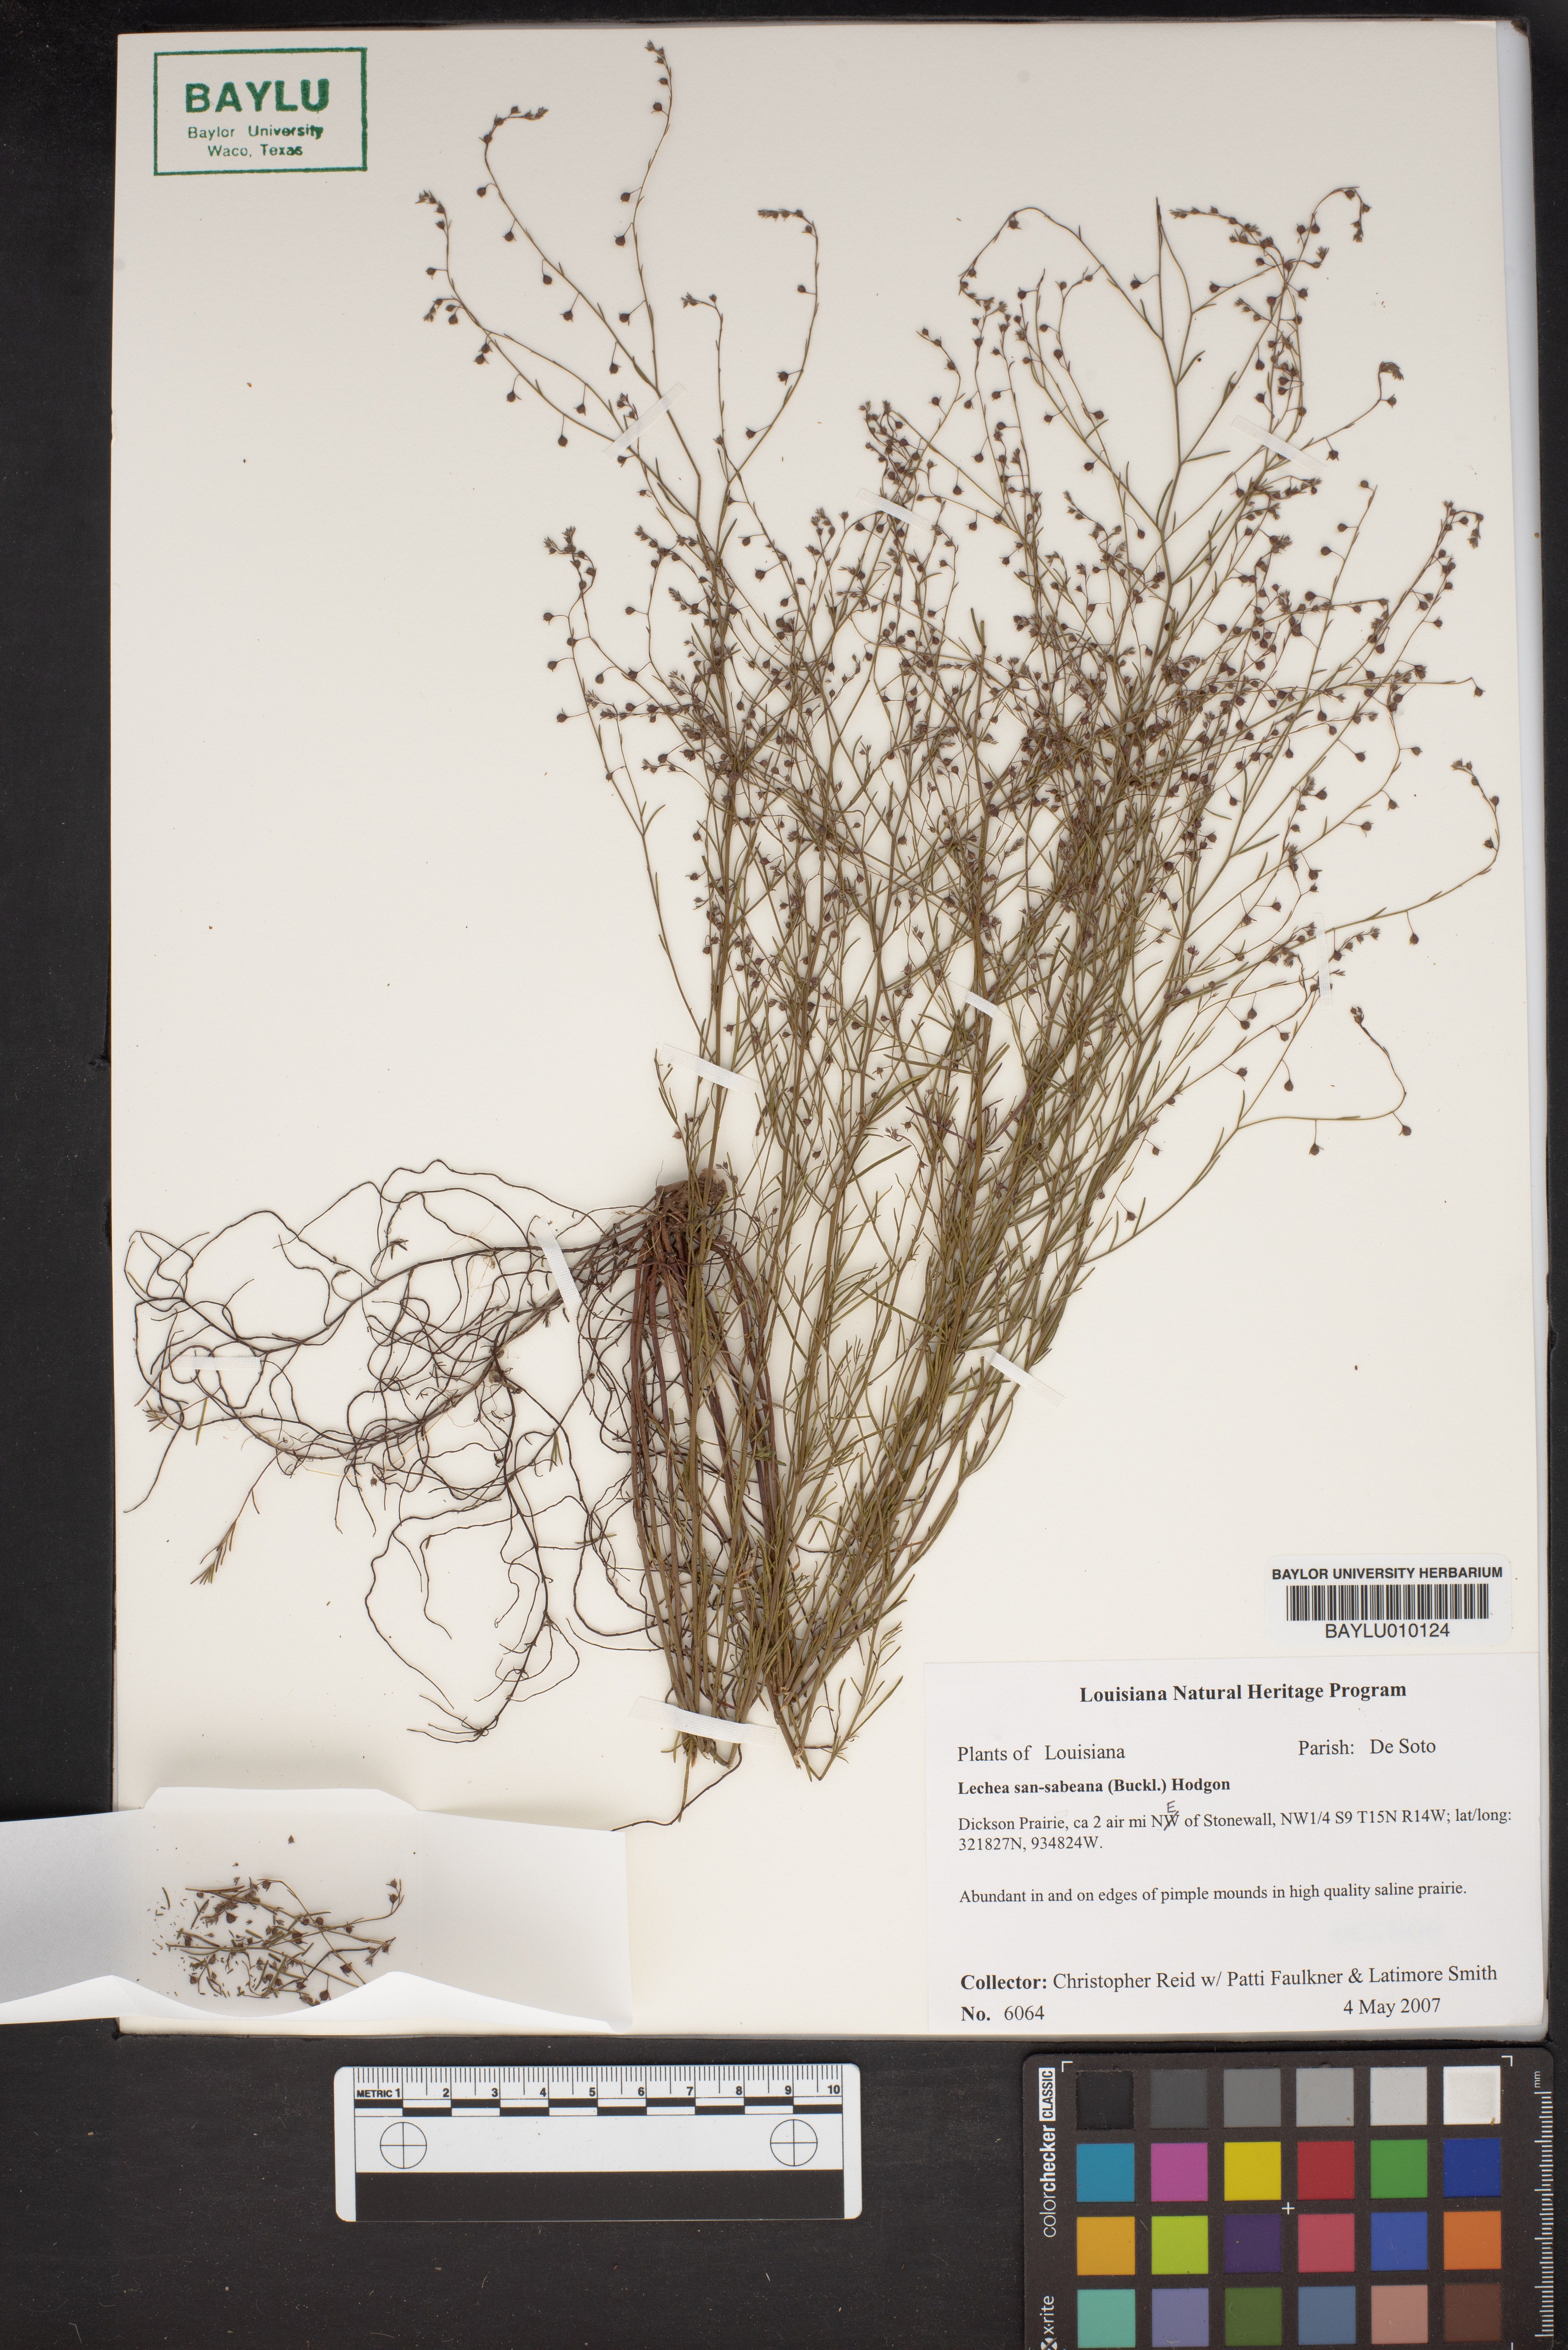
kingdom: Plantae
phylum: Tracheophyta
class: Magnoliopsida
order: Malvales
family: Cistaceae
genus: Lechea
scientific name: Lechea san-sabeana
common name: San saba pinweed
